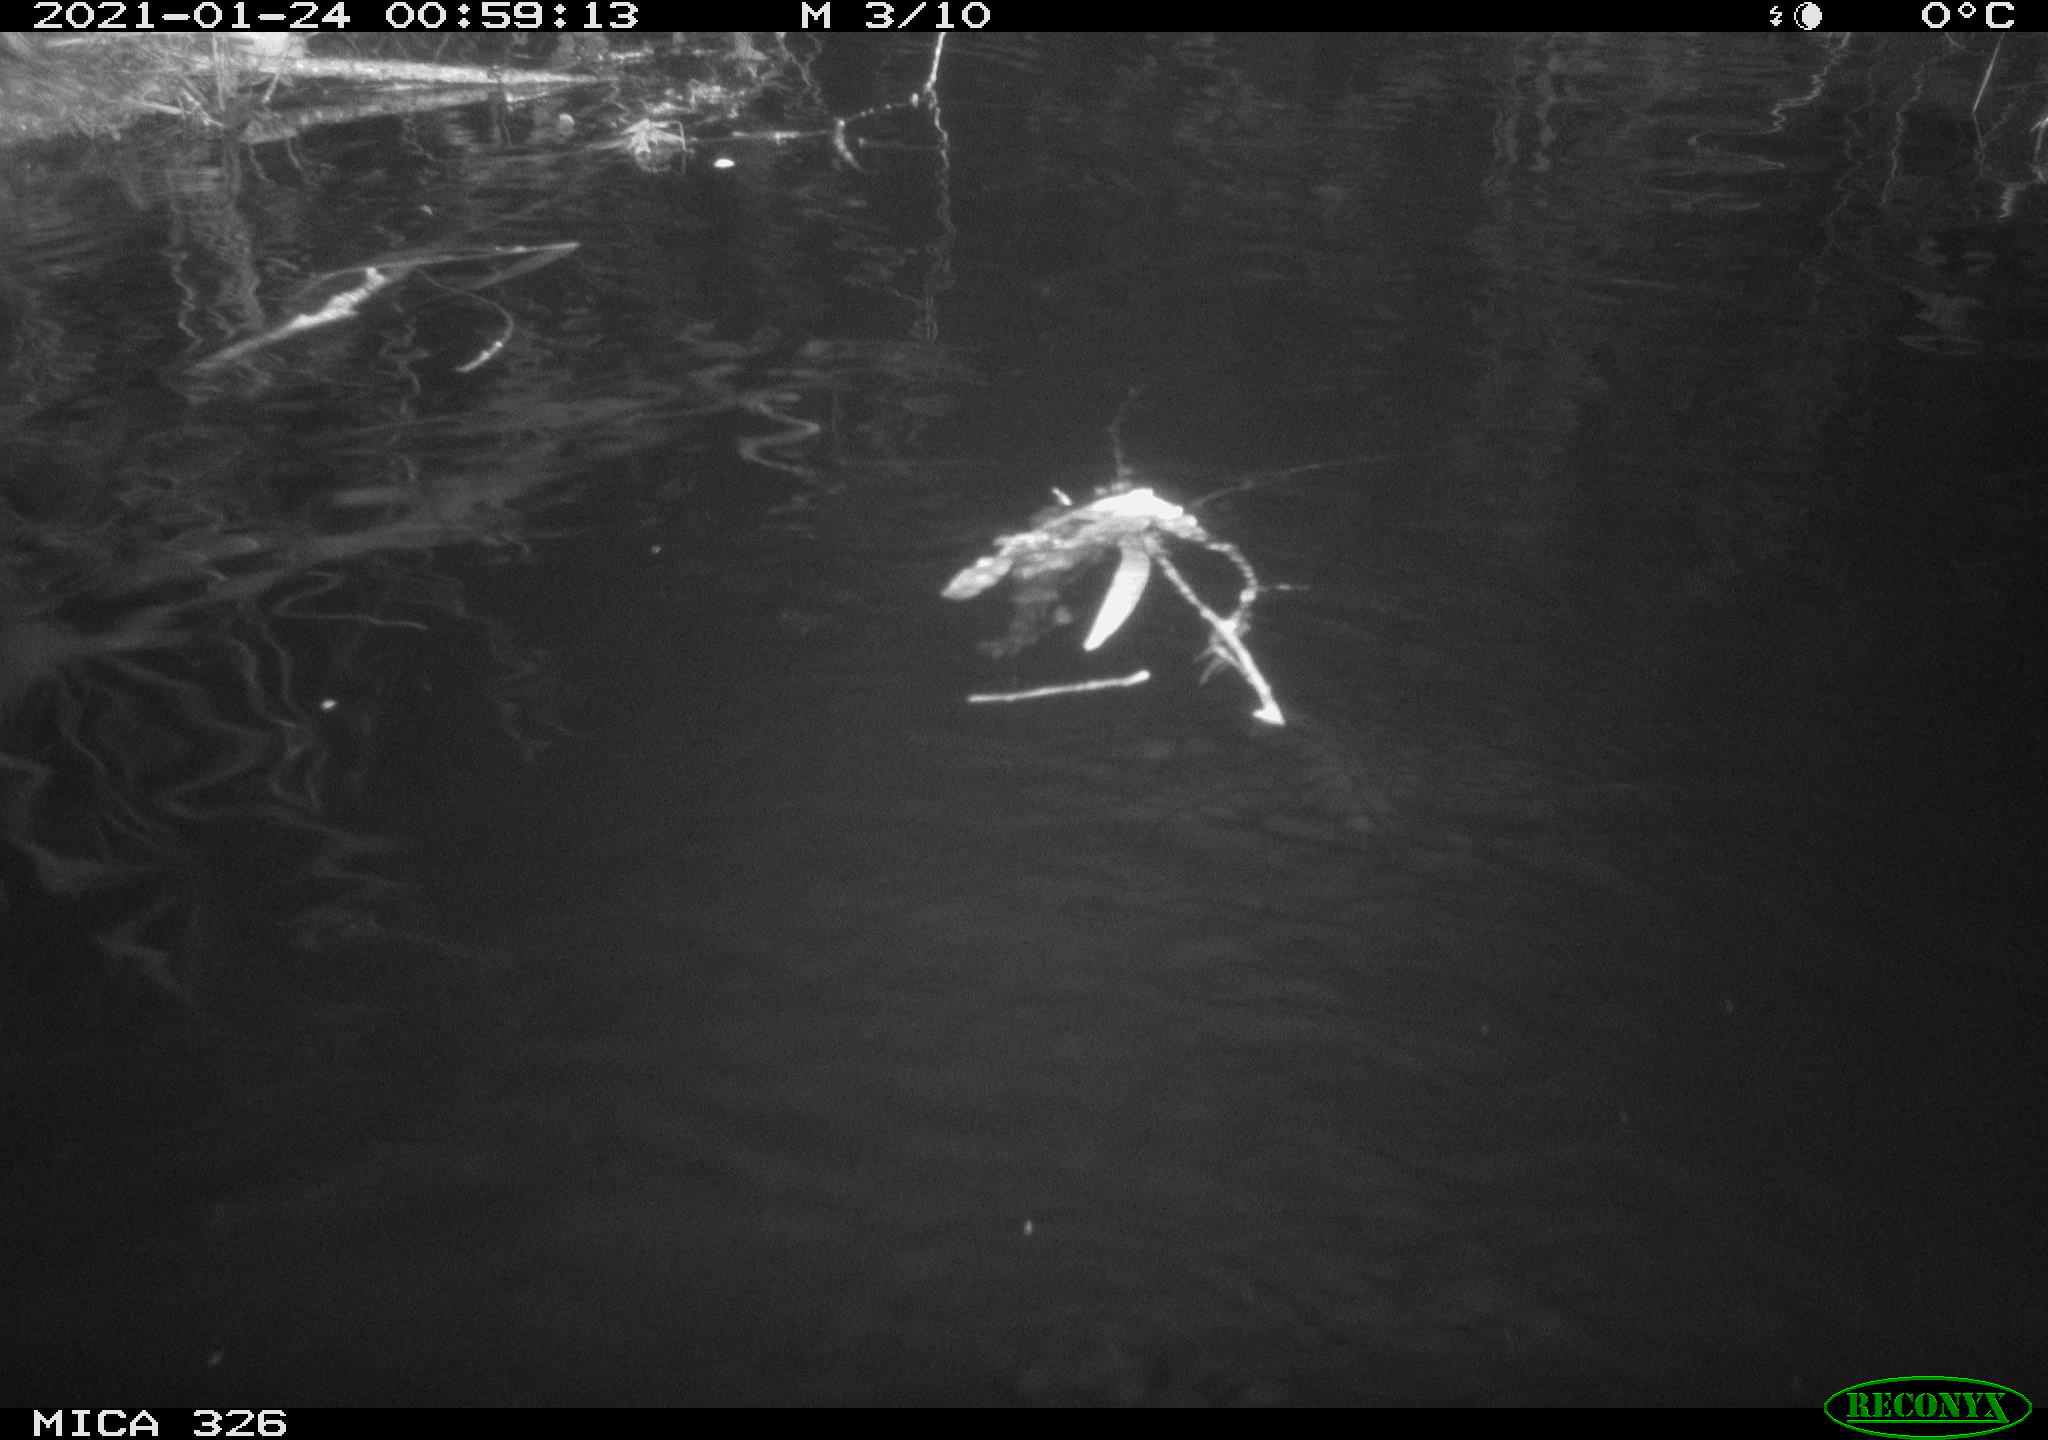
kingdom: Animalia
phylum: Chordata
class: Mammalia
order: Rodentia
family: Cricetidae
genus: Ondatra
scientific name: Ondatra zibethicus
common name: Muskrat
